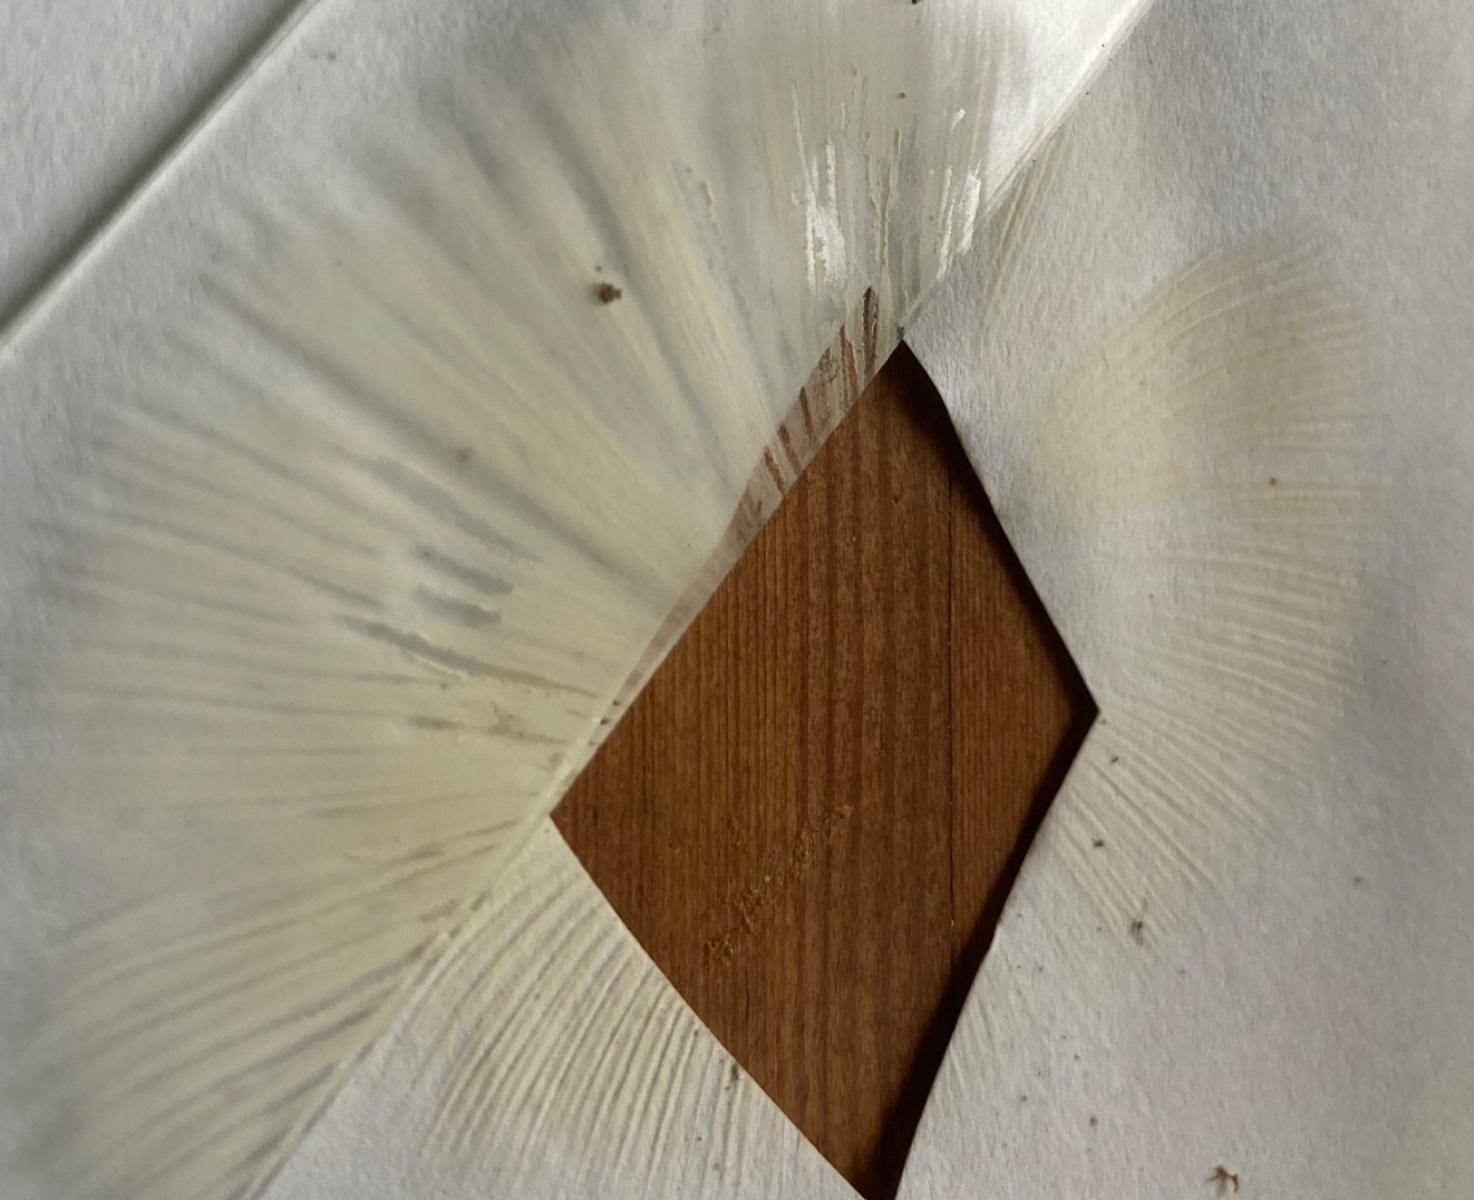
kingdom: Fungi
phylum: Basidiomycota
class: Agaricomycetes
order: Russulales
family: Russulaceae
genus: Russula
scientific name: Russula
